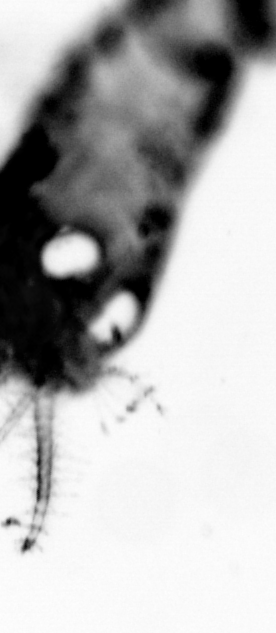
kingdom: Animalia
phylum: Chordata
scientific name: Chordata
